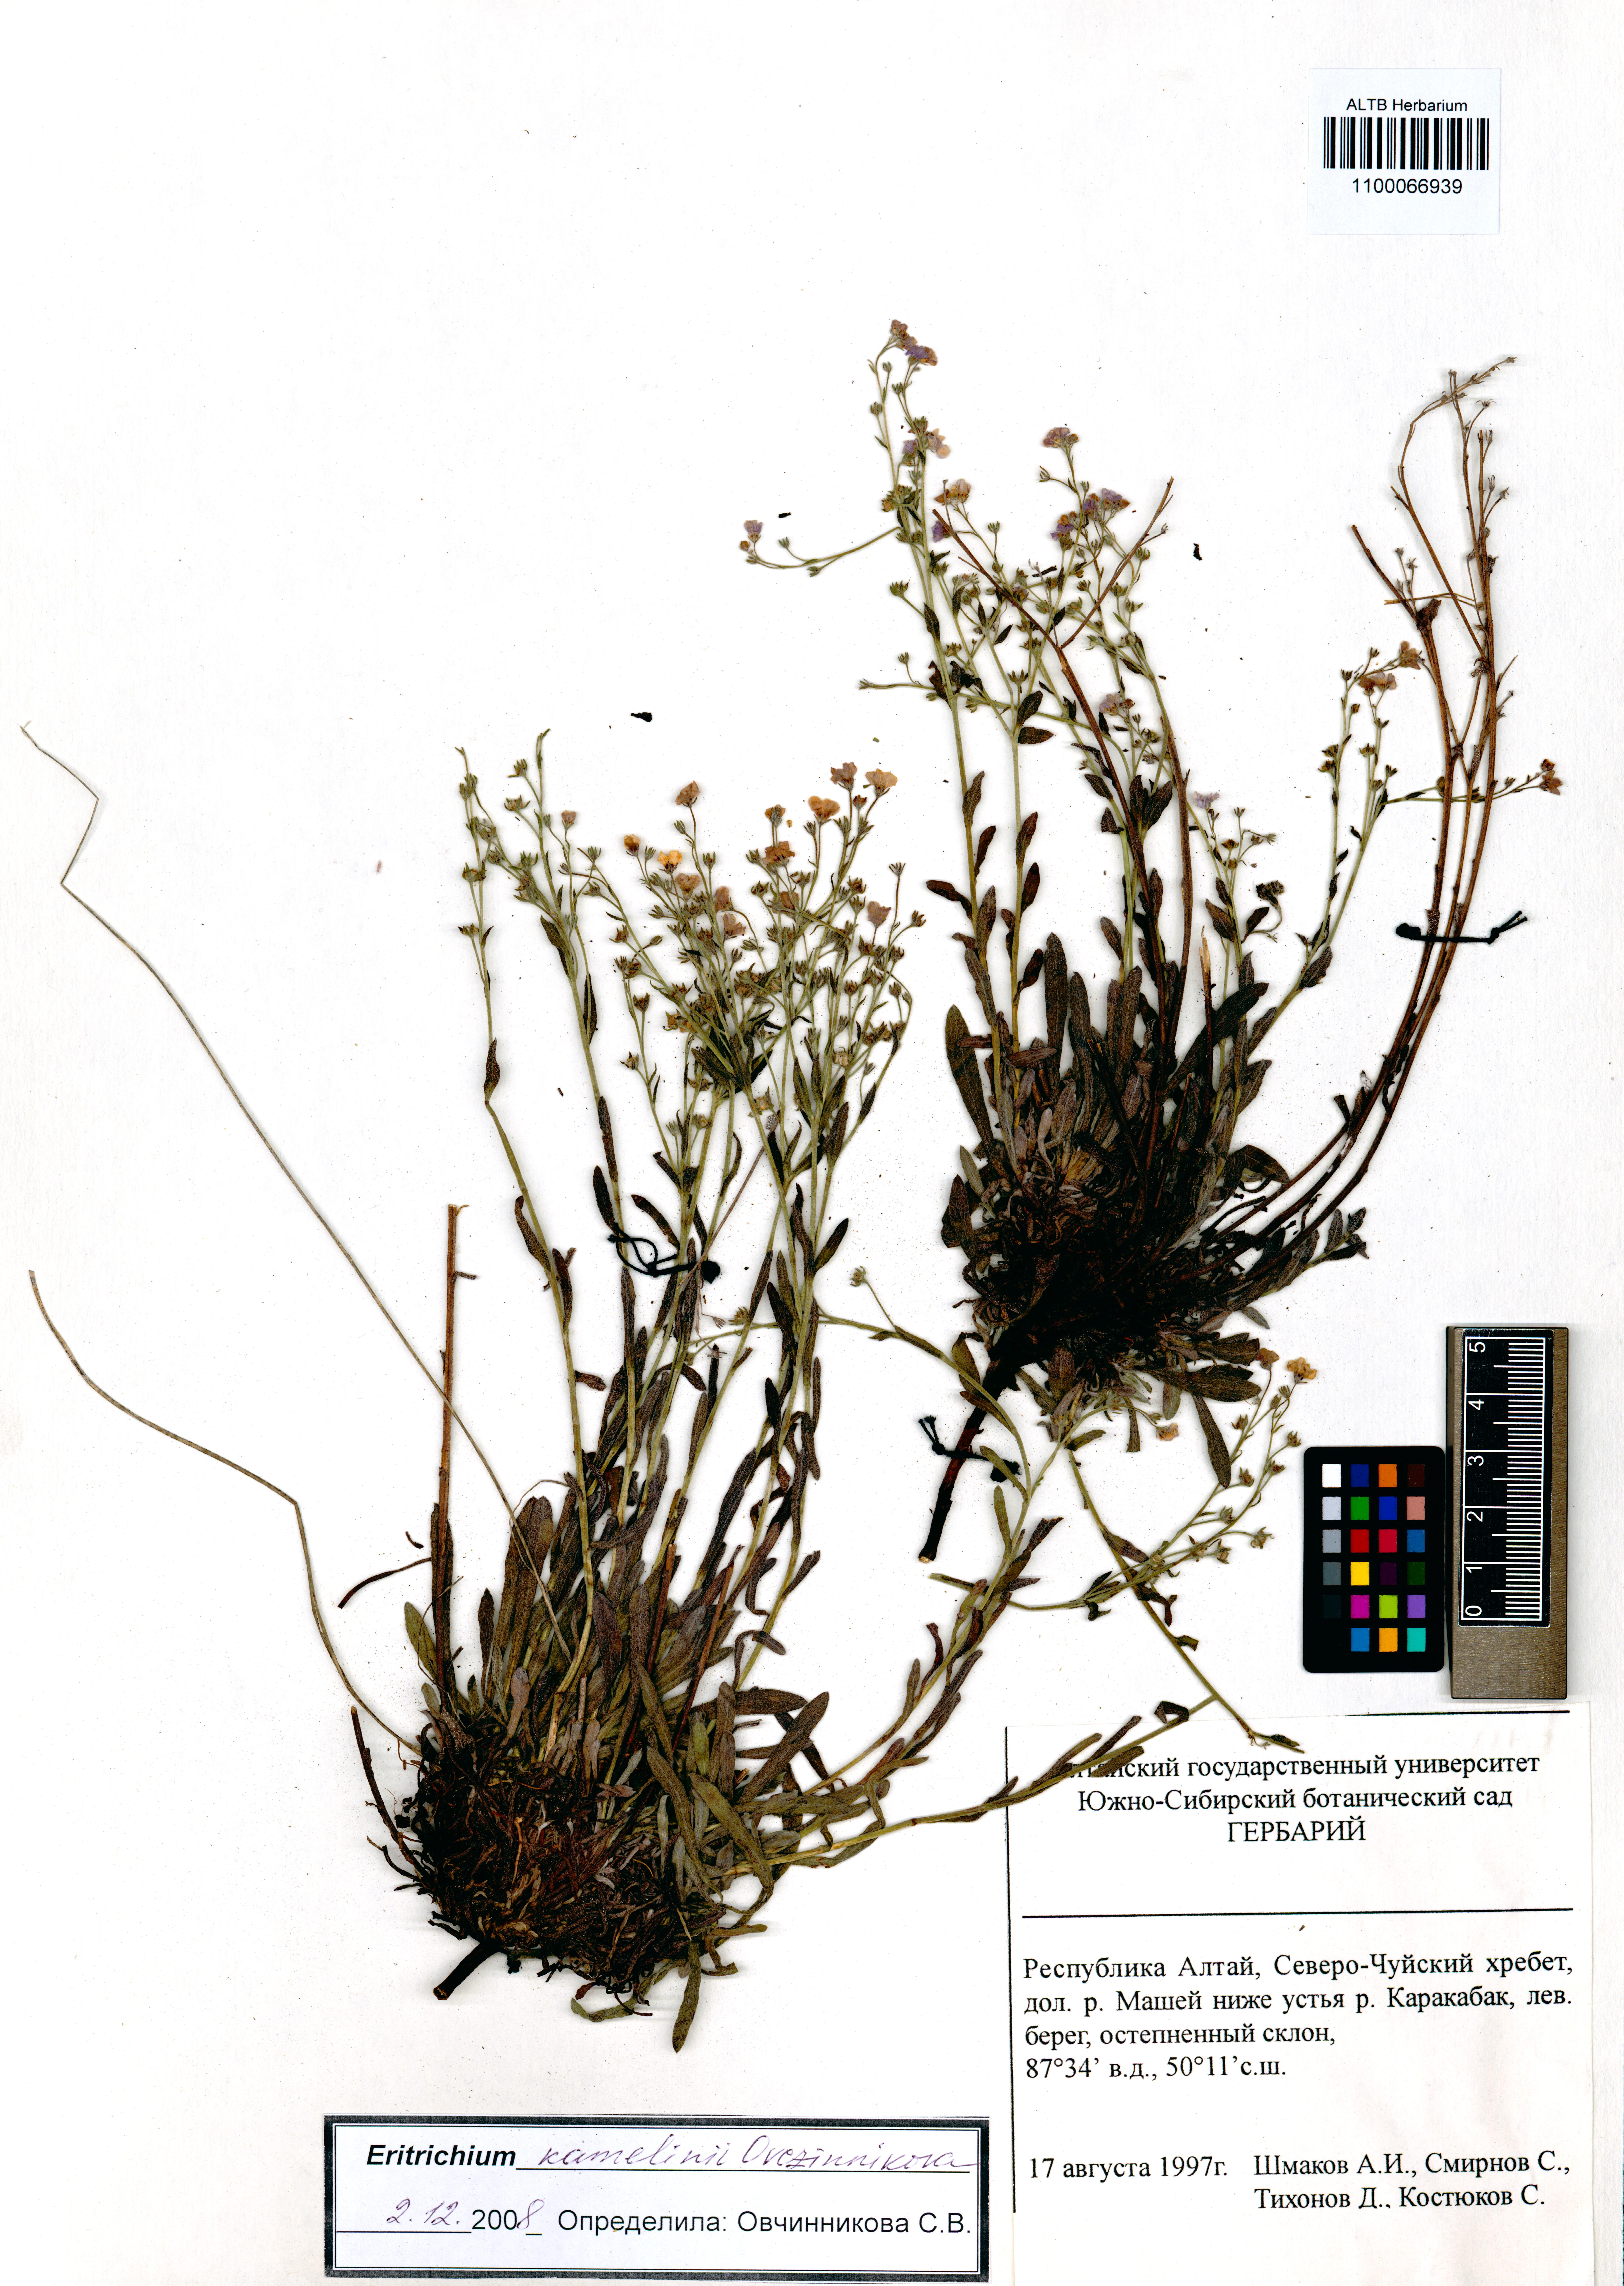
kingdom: Plantae
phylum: Tracheophyta
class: Magnoliopsida
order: Boraginales
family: Boraginaceae
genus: Eritrichium
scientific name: Eritrichium kamelinii
